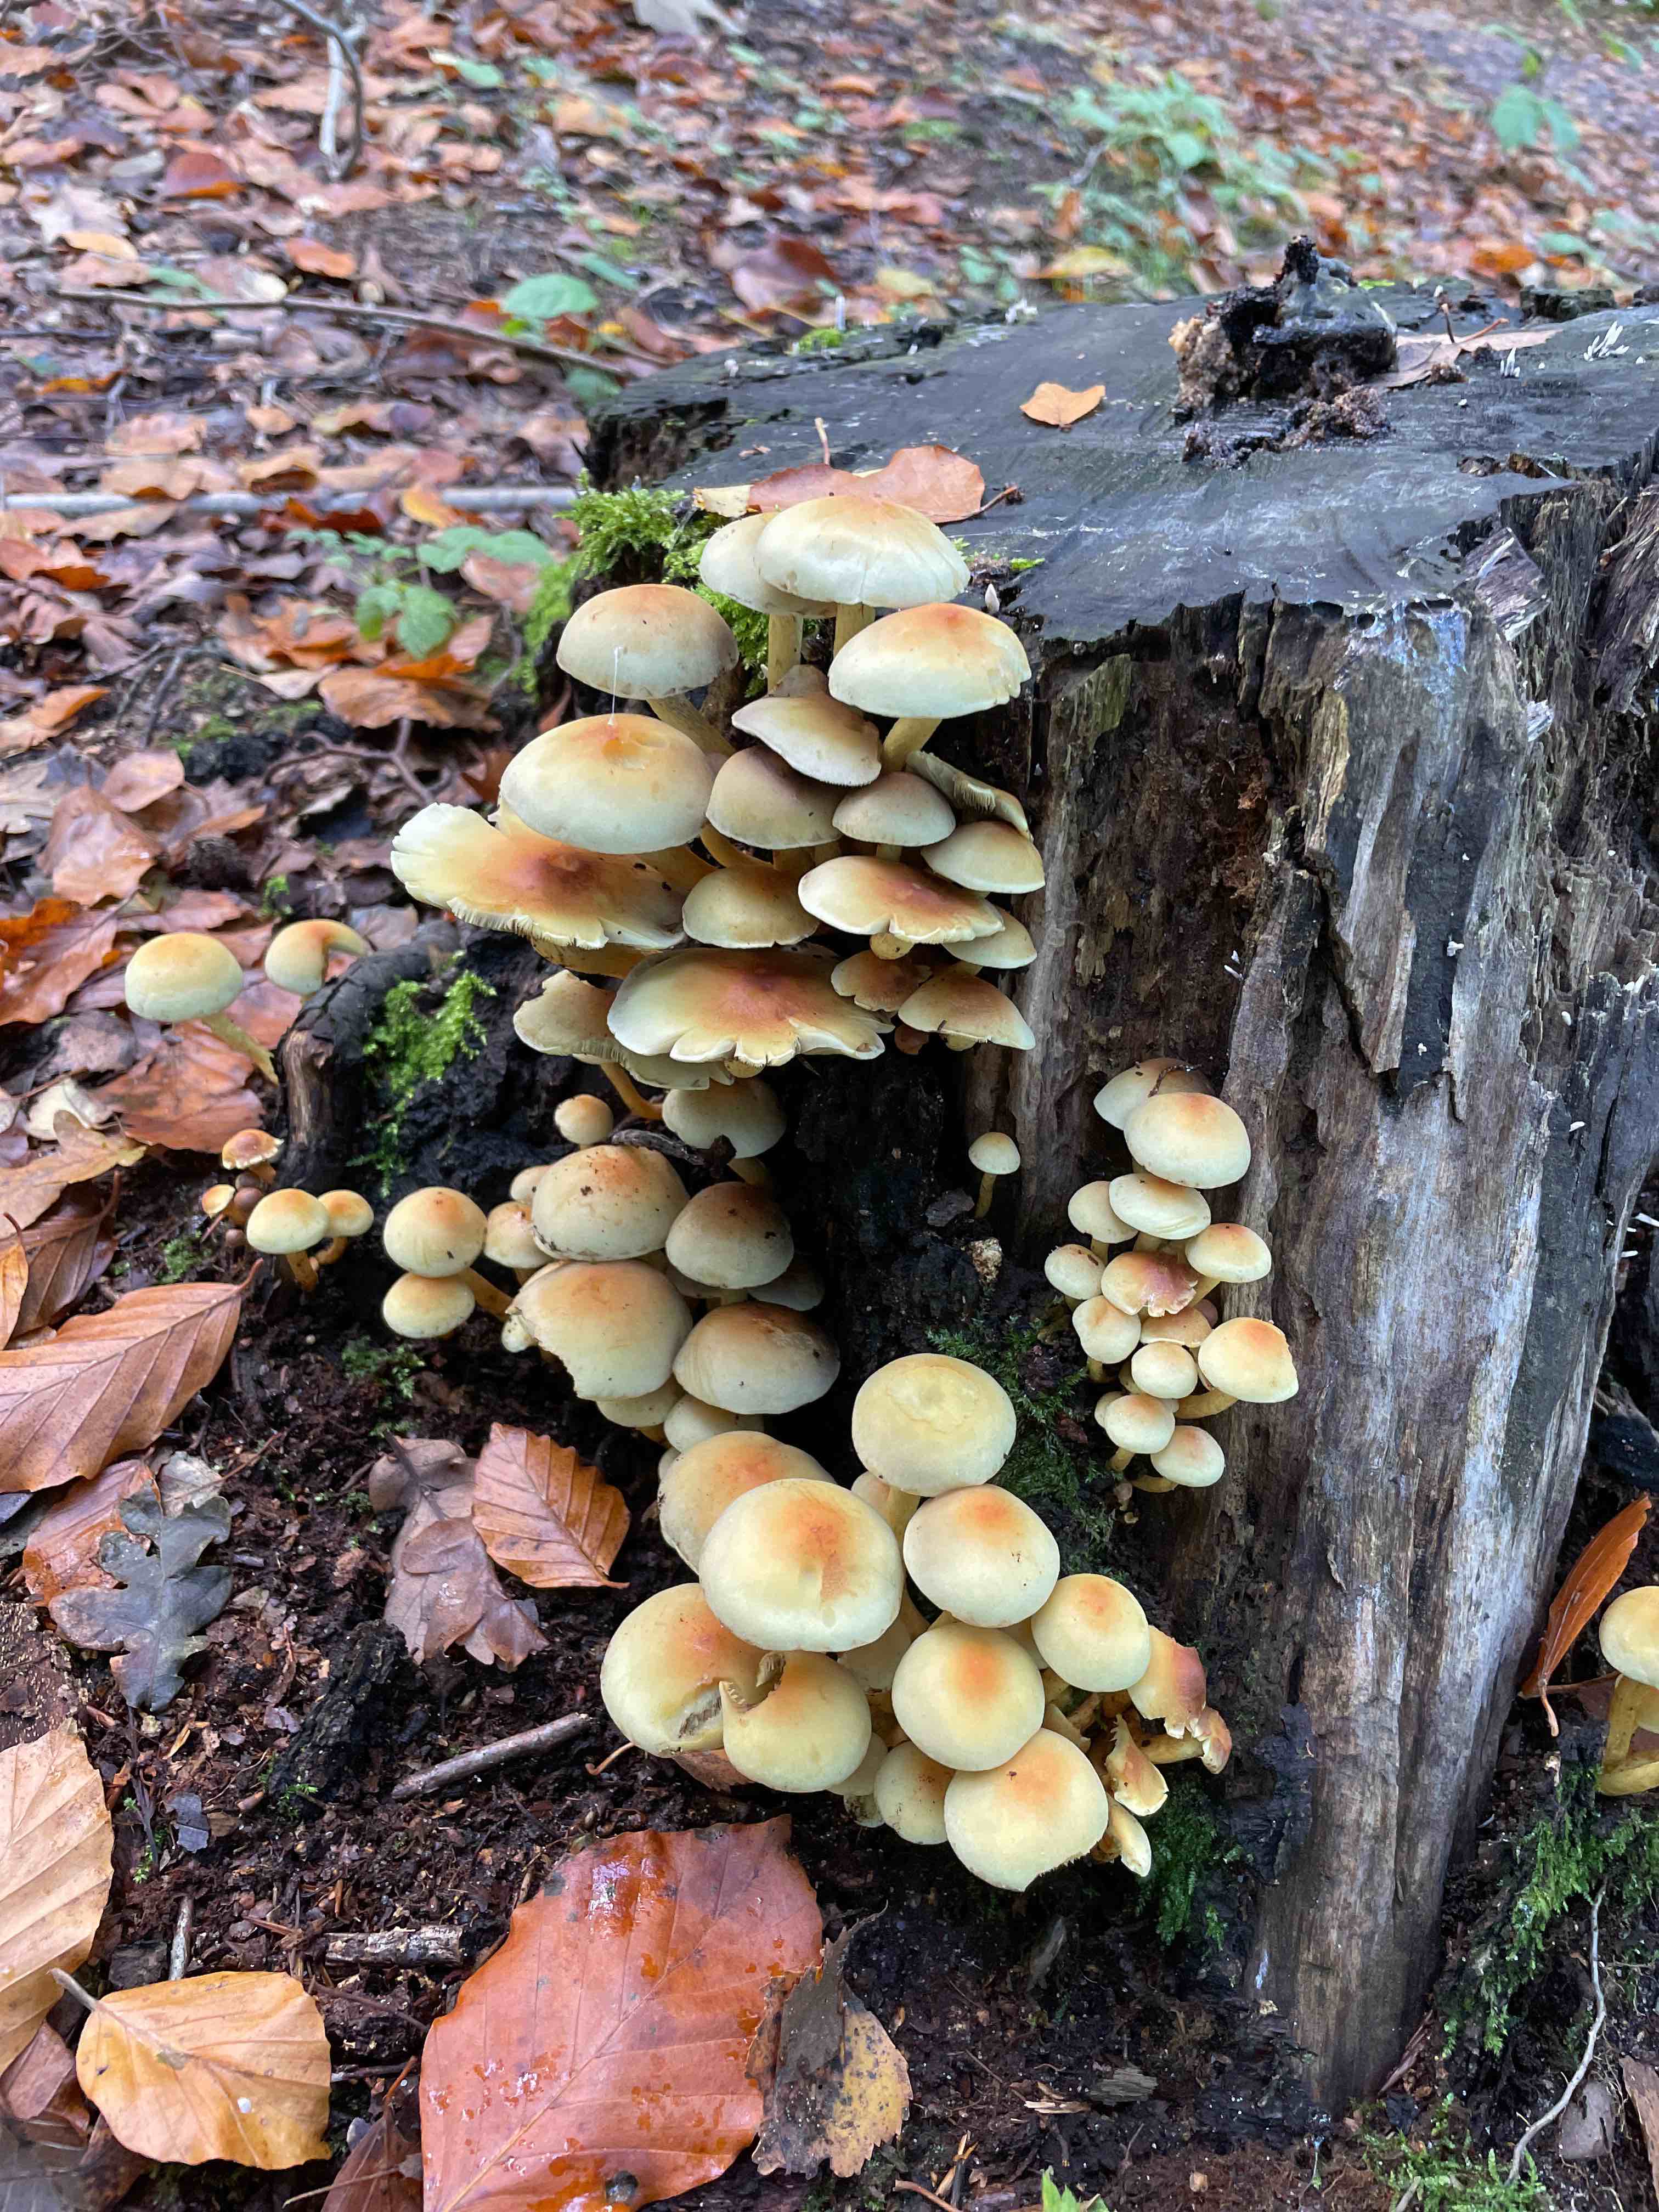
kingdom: Fungi
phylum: Basidiomycota
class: Agaricomycetes
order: Agaricales
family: Strophariaceae
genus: Hypholoma
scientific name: Hypholoma fasciculare
